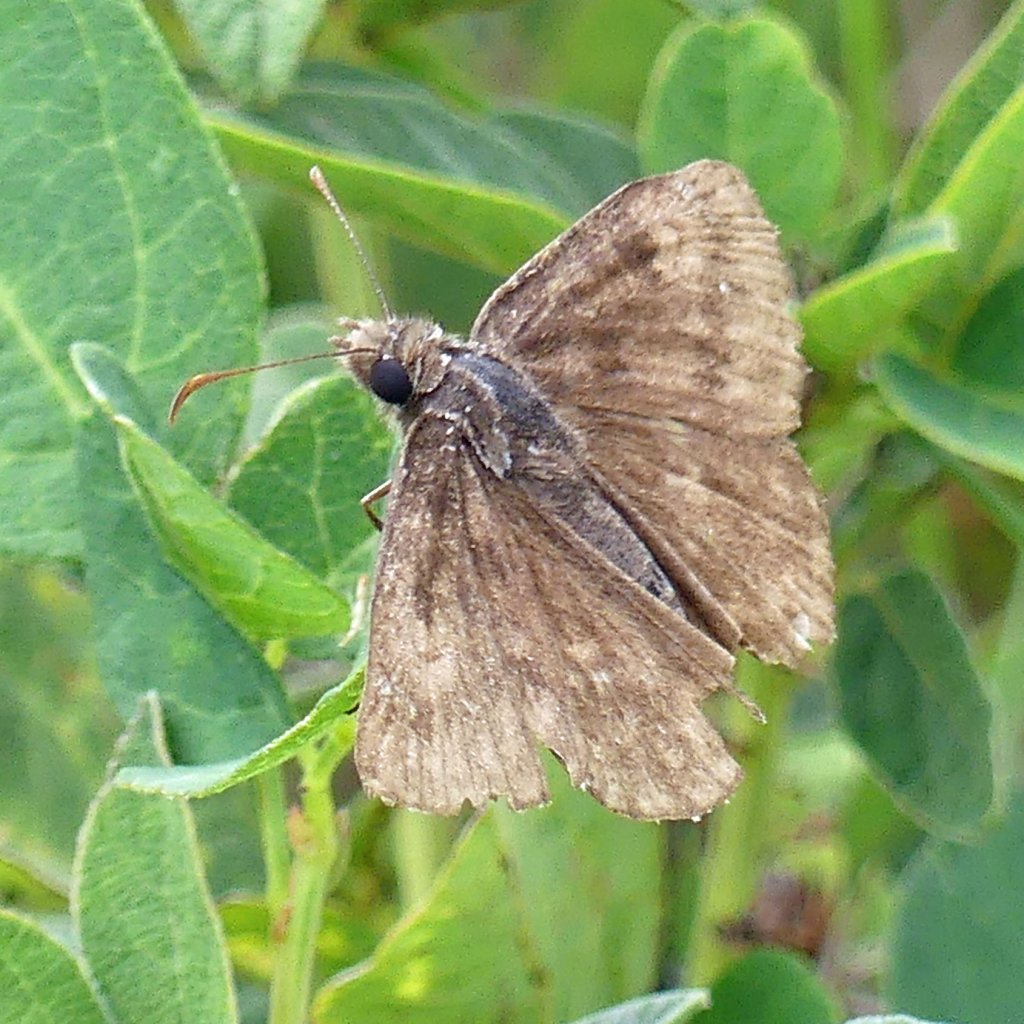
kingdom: Animalia
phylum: Arthropoda
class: Insecta
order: Lepidoptera
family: Hesperiidae
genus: Gesta
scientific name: Gesta
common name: Wild Indigo Duskywing
